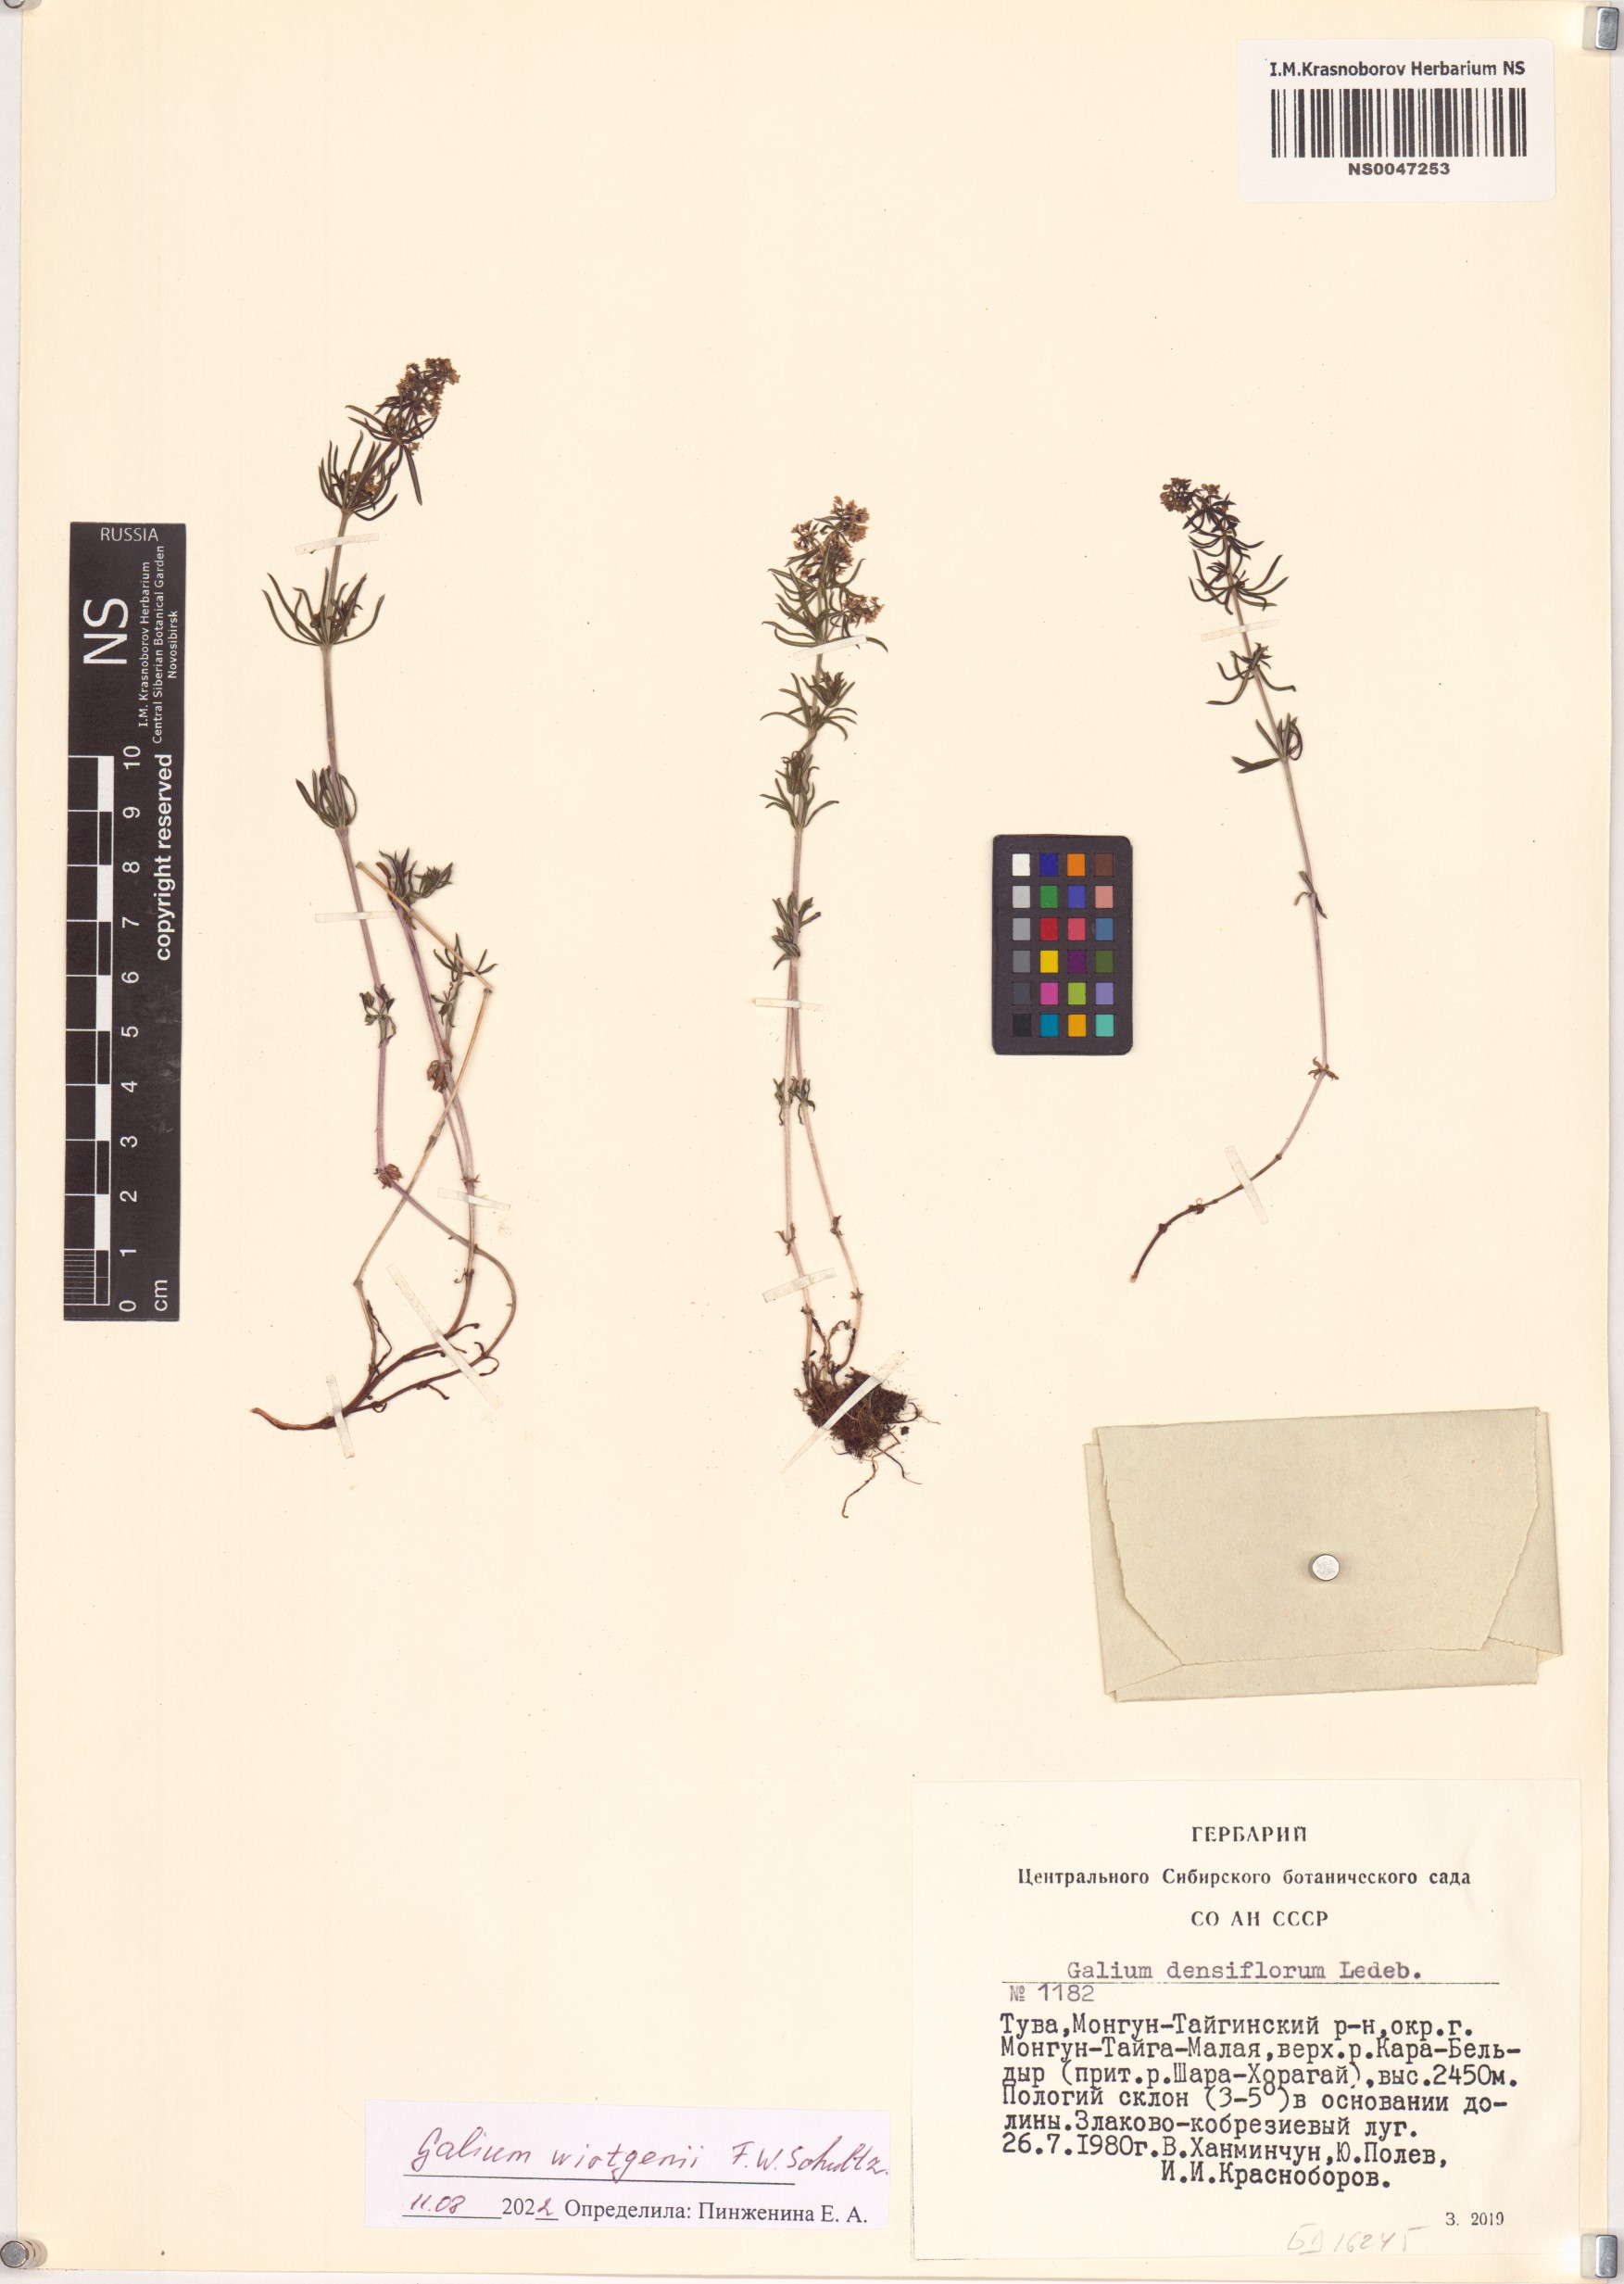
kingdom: Plantae
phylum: Tracheophyta
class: Magnoliopsida
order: Gentianales
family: Rubiaceae
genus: Galium
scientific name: Galium verum
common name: Lady's bedstraw
